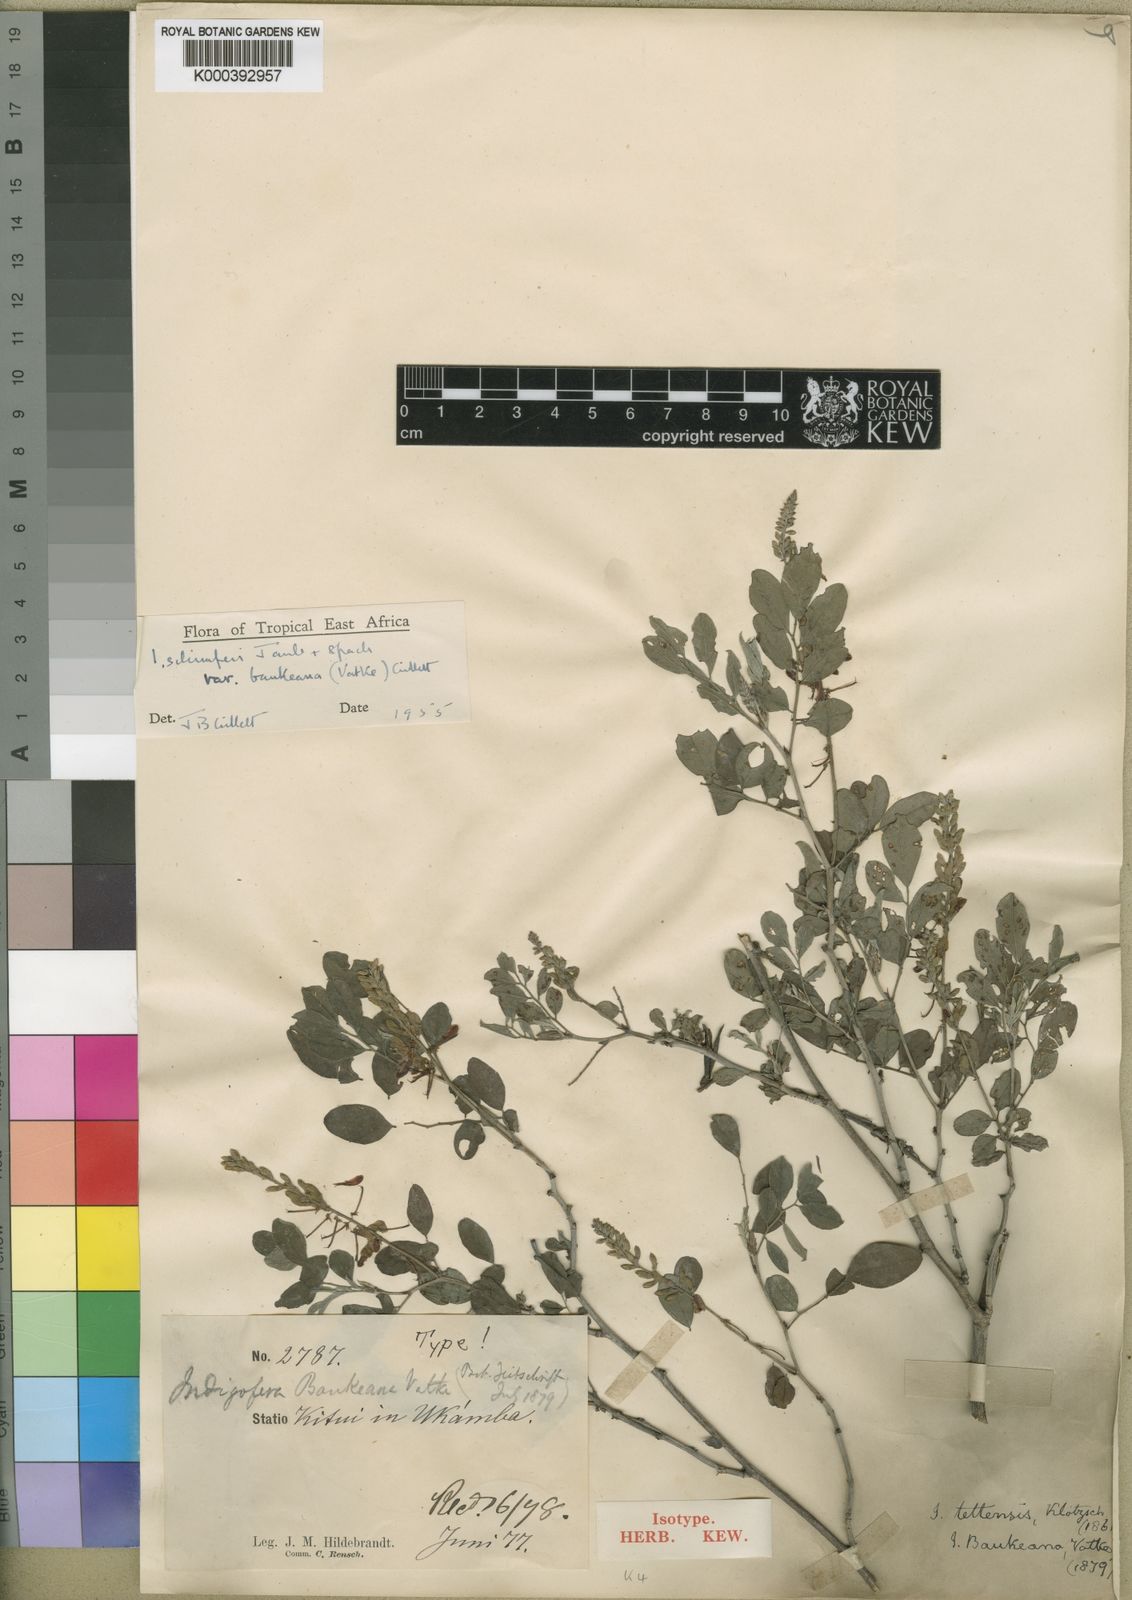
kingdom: Plantae
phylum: Tracheophyta
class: Magnoliopsida
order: Fabales
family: Fabaceae
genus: Indigofera
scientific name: Indigofera schimperi
